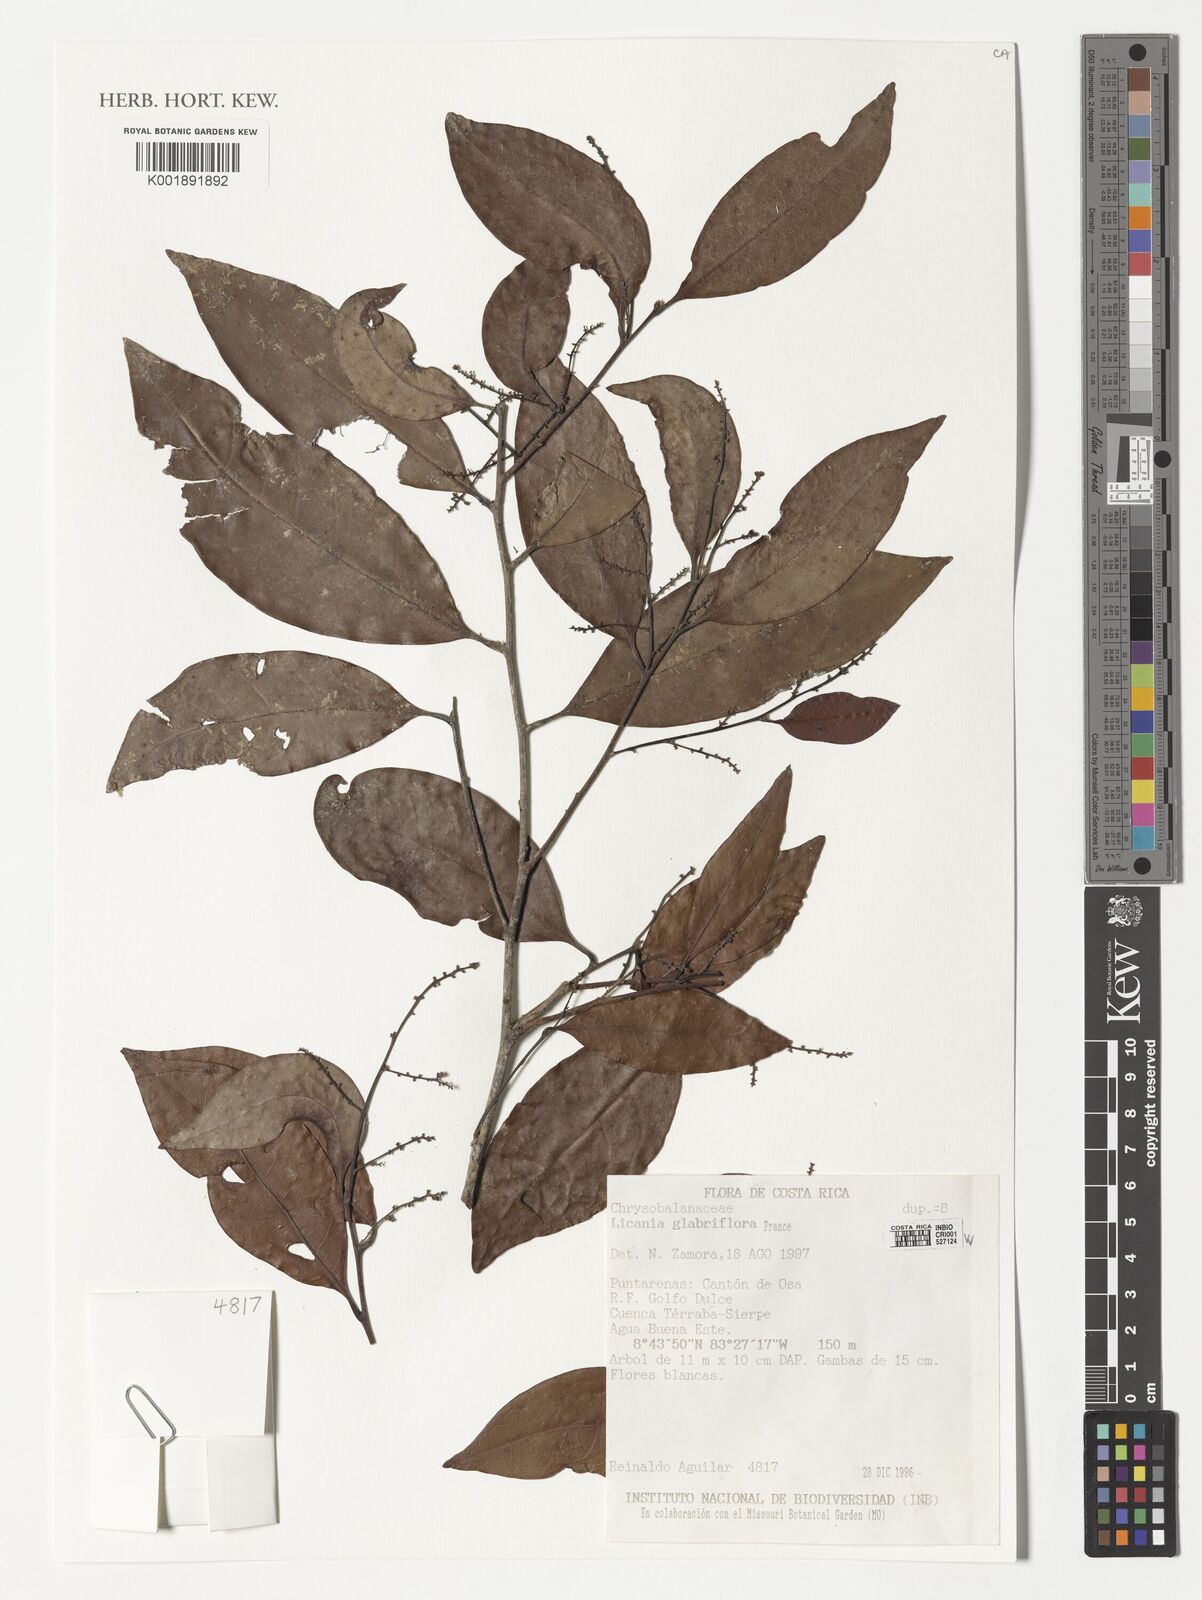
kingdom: Plantae
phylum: Tracheophyta
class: Magnoliopsida
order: Malpighiales
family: Chrysobalanaceae
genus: Hymenopus
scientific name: Hymenopus glabriflorus
